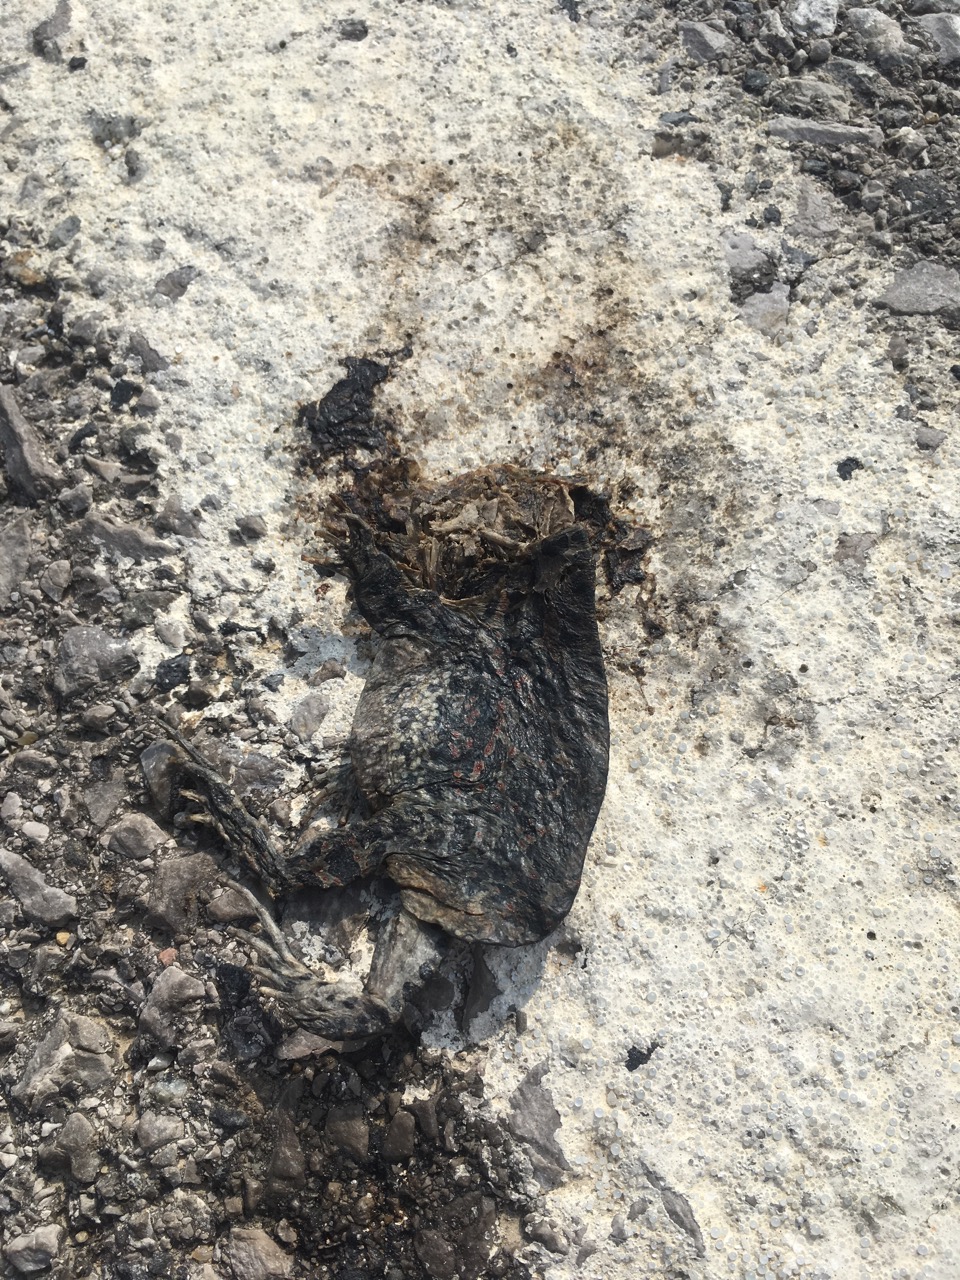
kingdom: Animalia
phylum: Chordata
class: Amphibia
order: Anura
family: Bufonidae
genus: Bufotes
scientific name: Bufotes viridis
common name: European green toad
